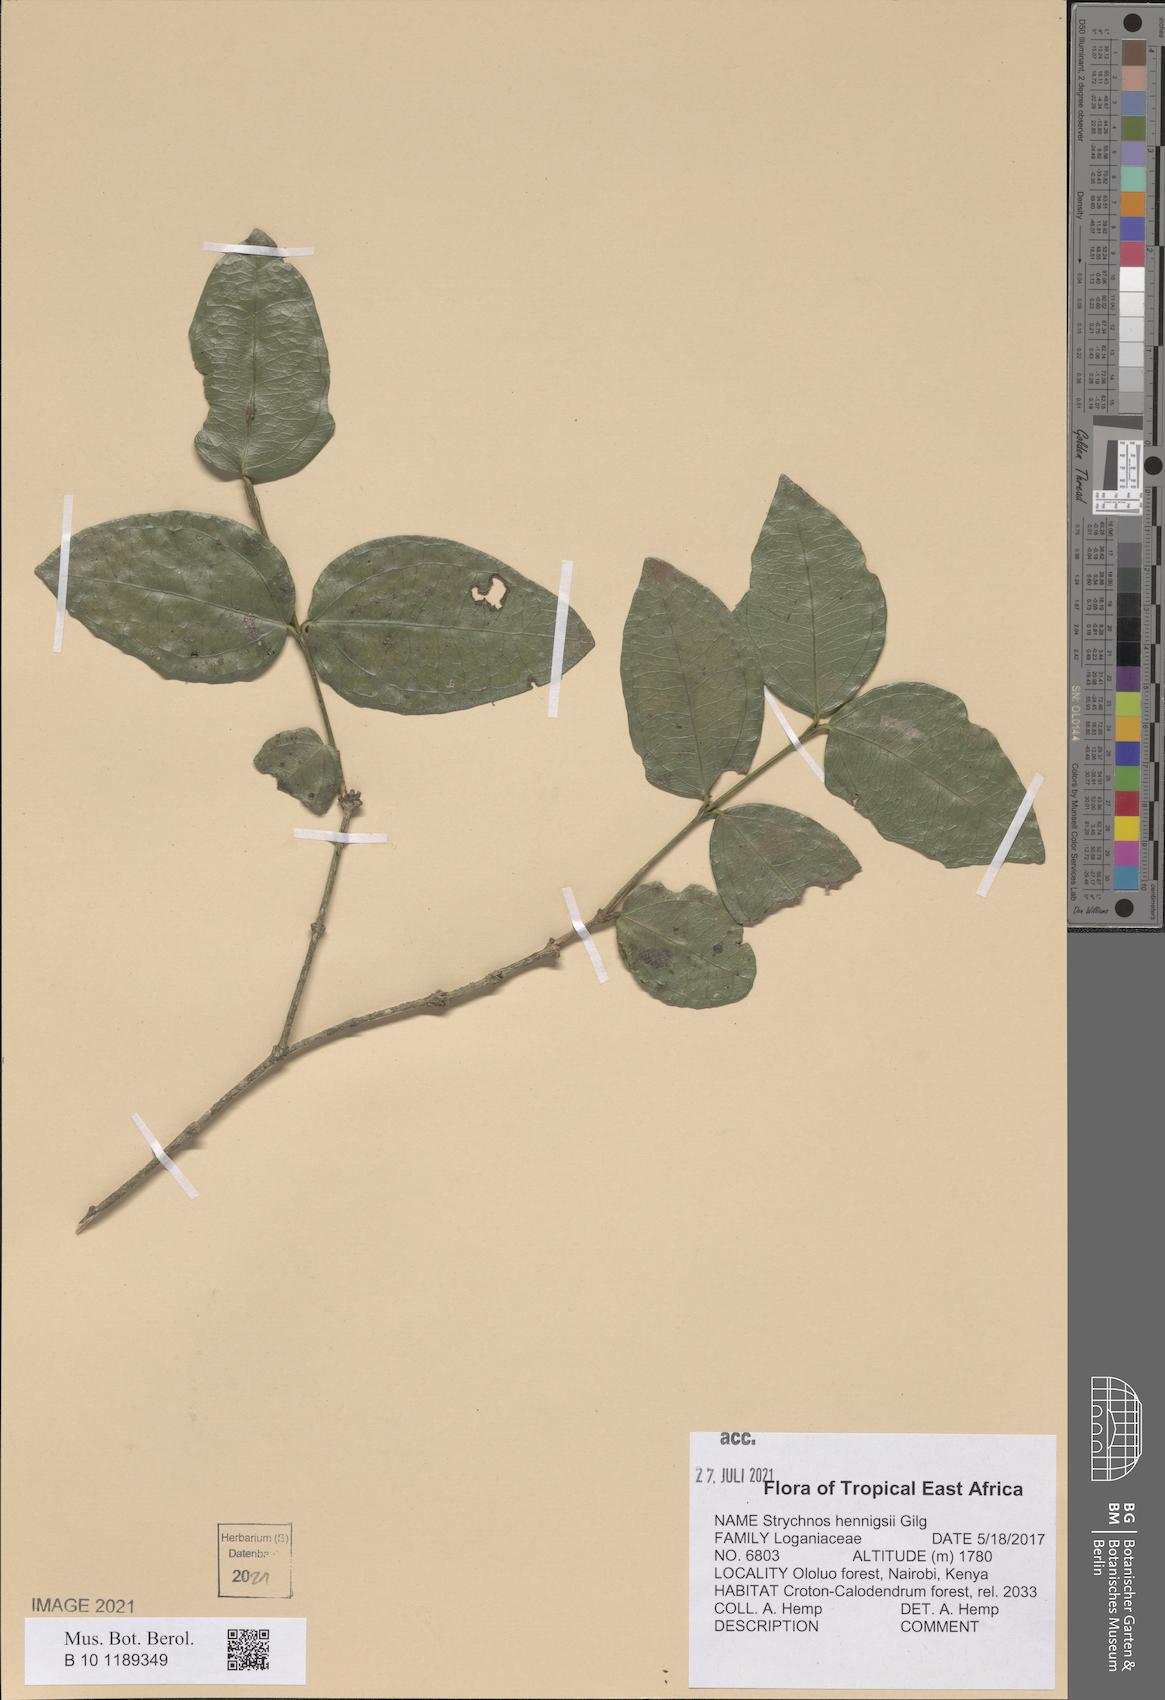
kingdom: Plantae
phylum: Tracheophyta
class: Magnoliopsida
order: Gentianales
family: Loganiaceae
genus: Strychnos
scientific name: Strychnos henningsii
